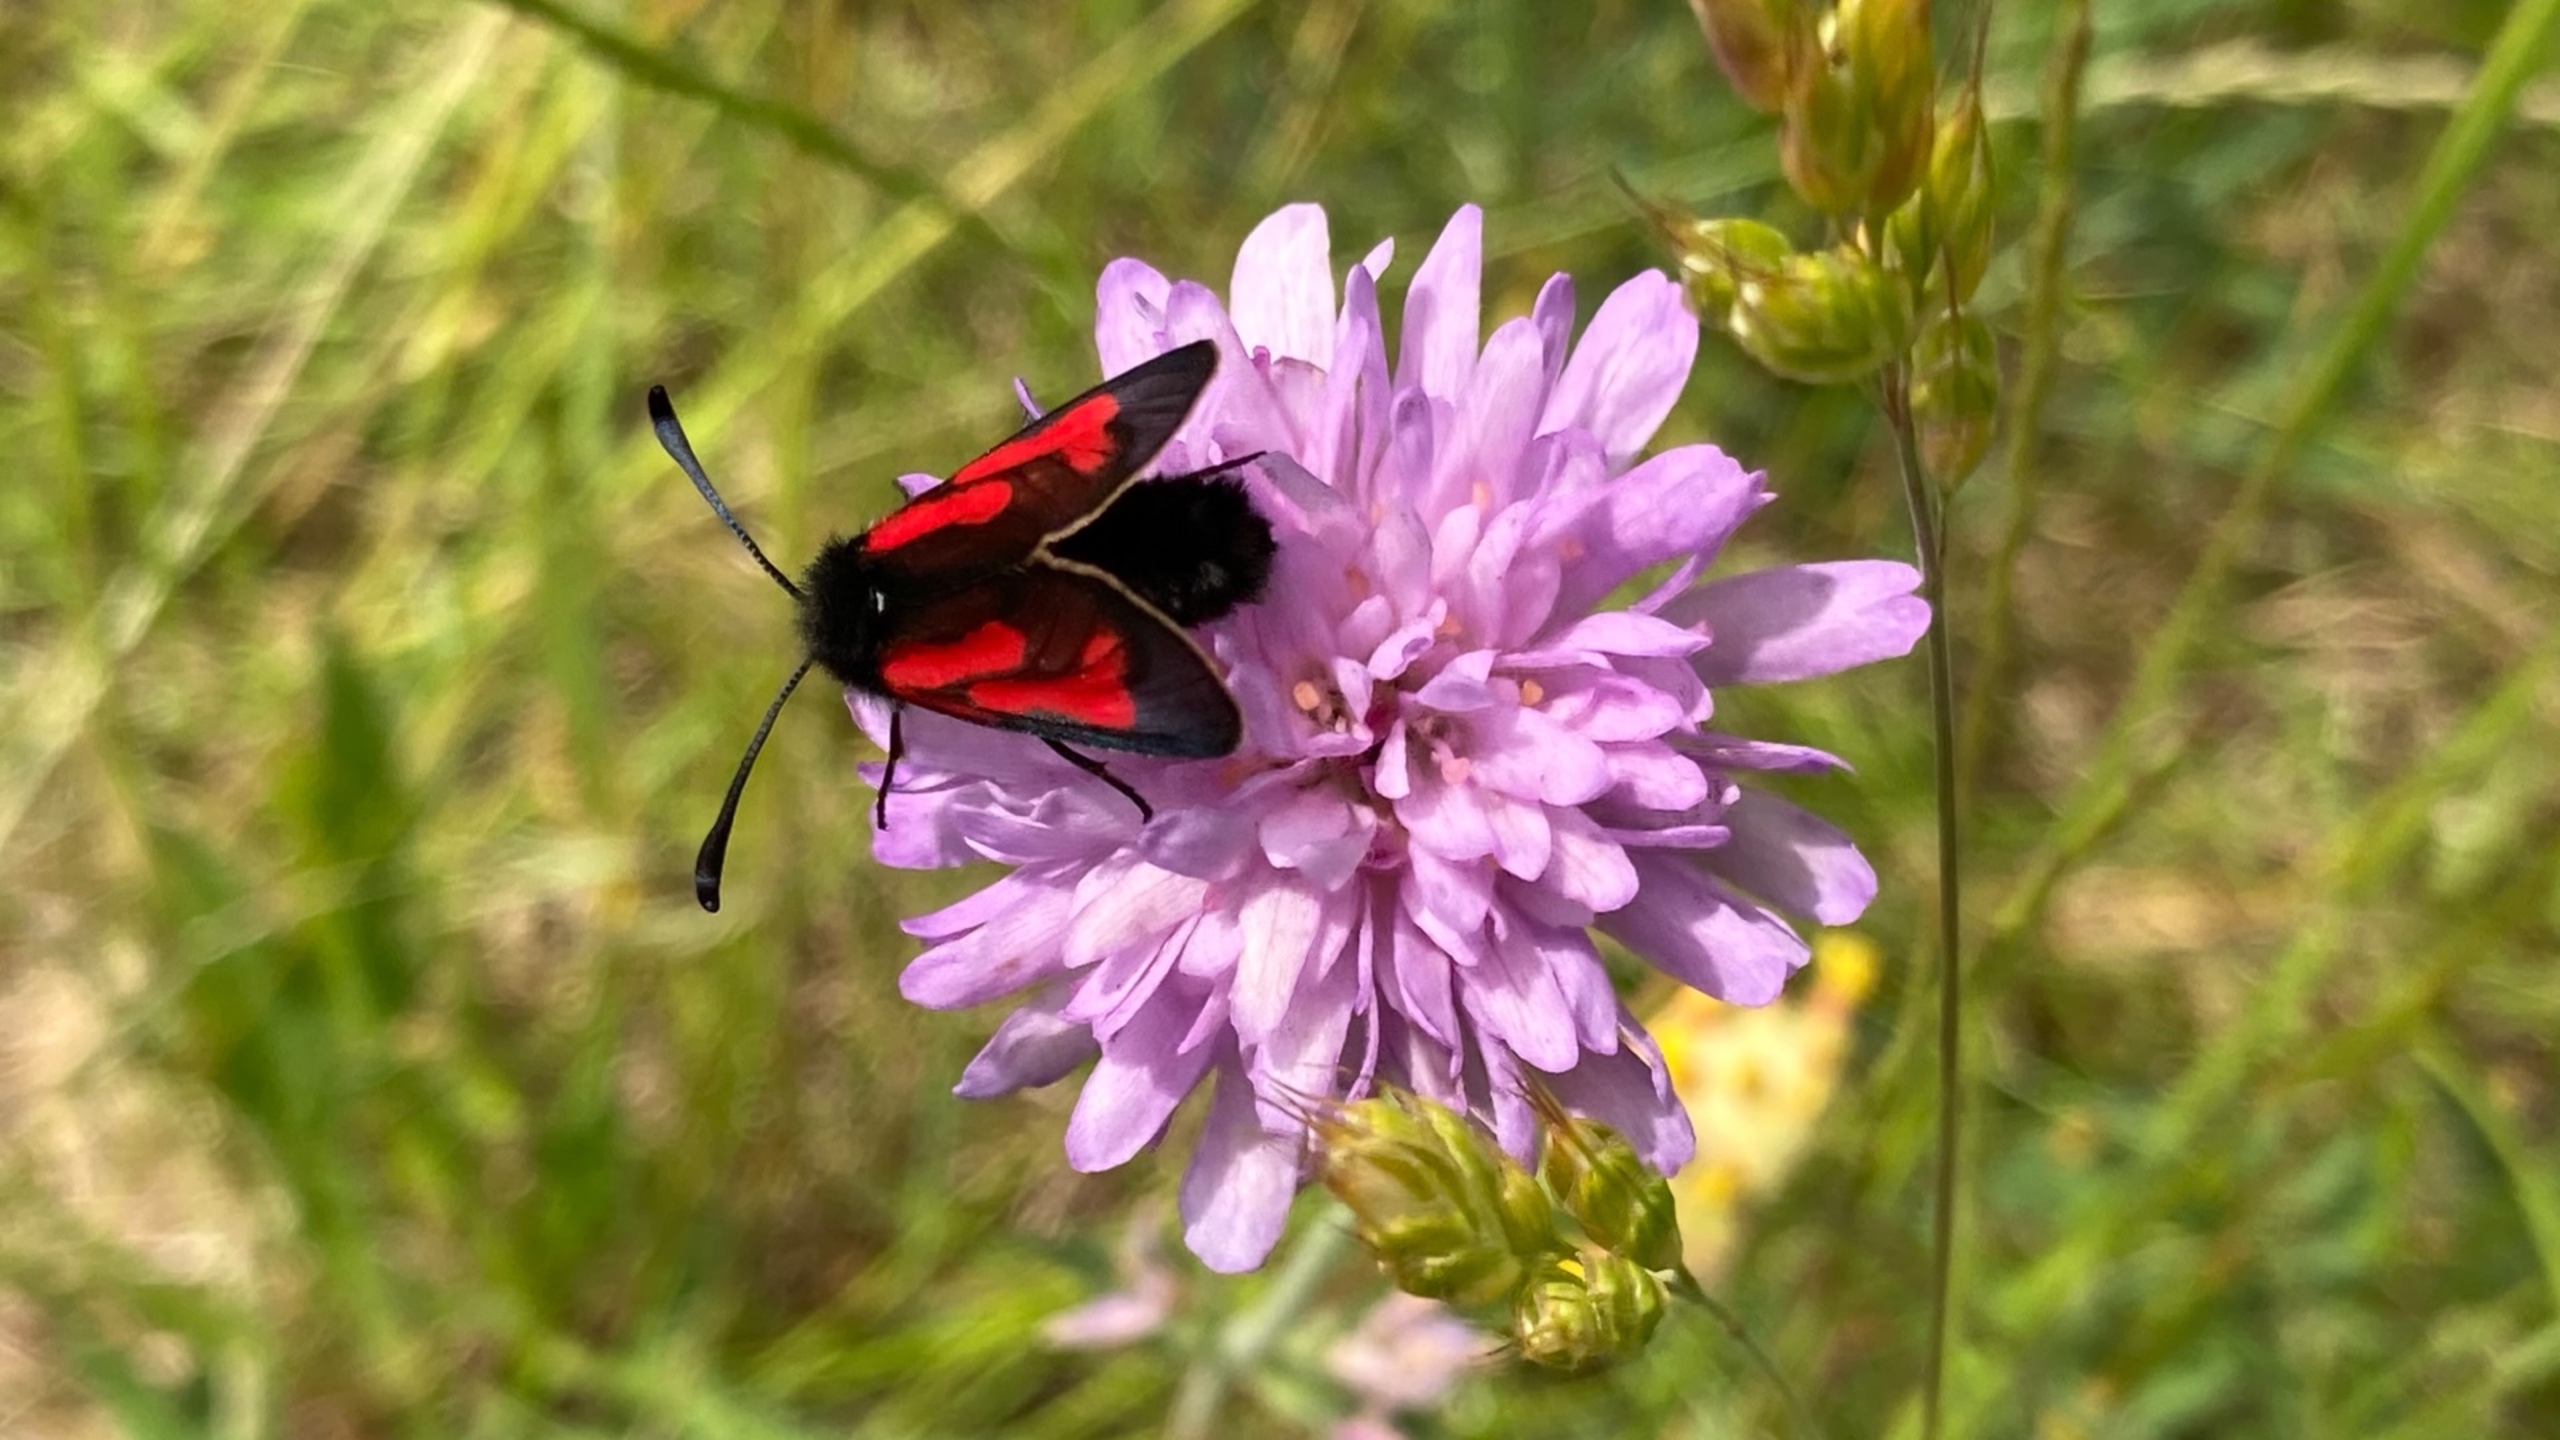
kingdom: Plantae
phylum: Tracheophyta
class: Magnoliopsida
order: Dipsacales
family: Caprifoliaceae
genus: Knautia
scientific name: Knautia arvensis
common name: Blåhat
